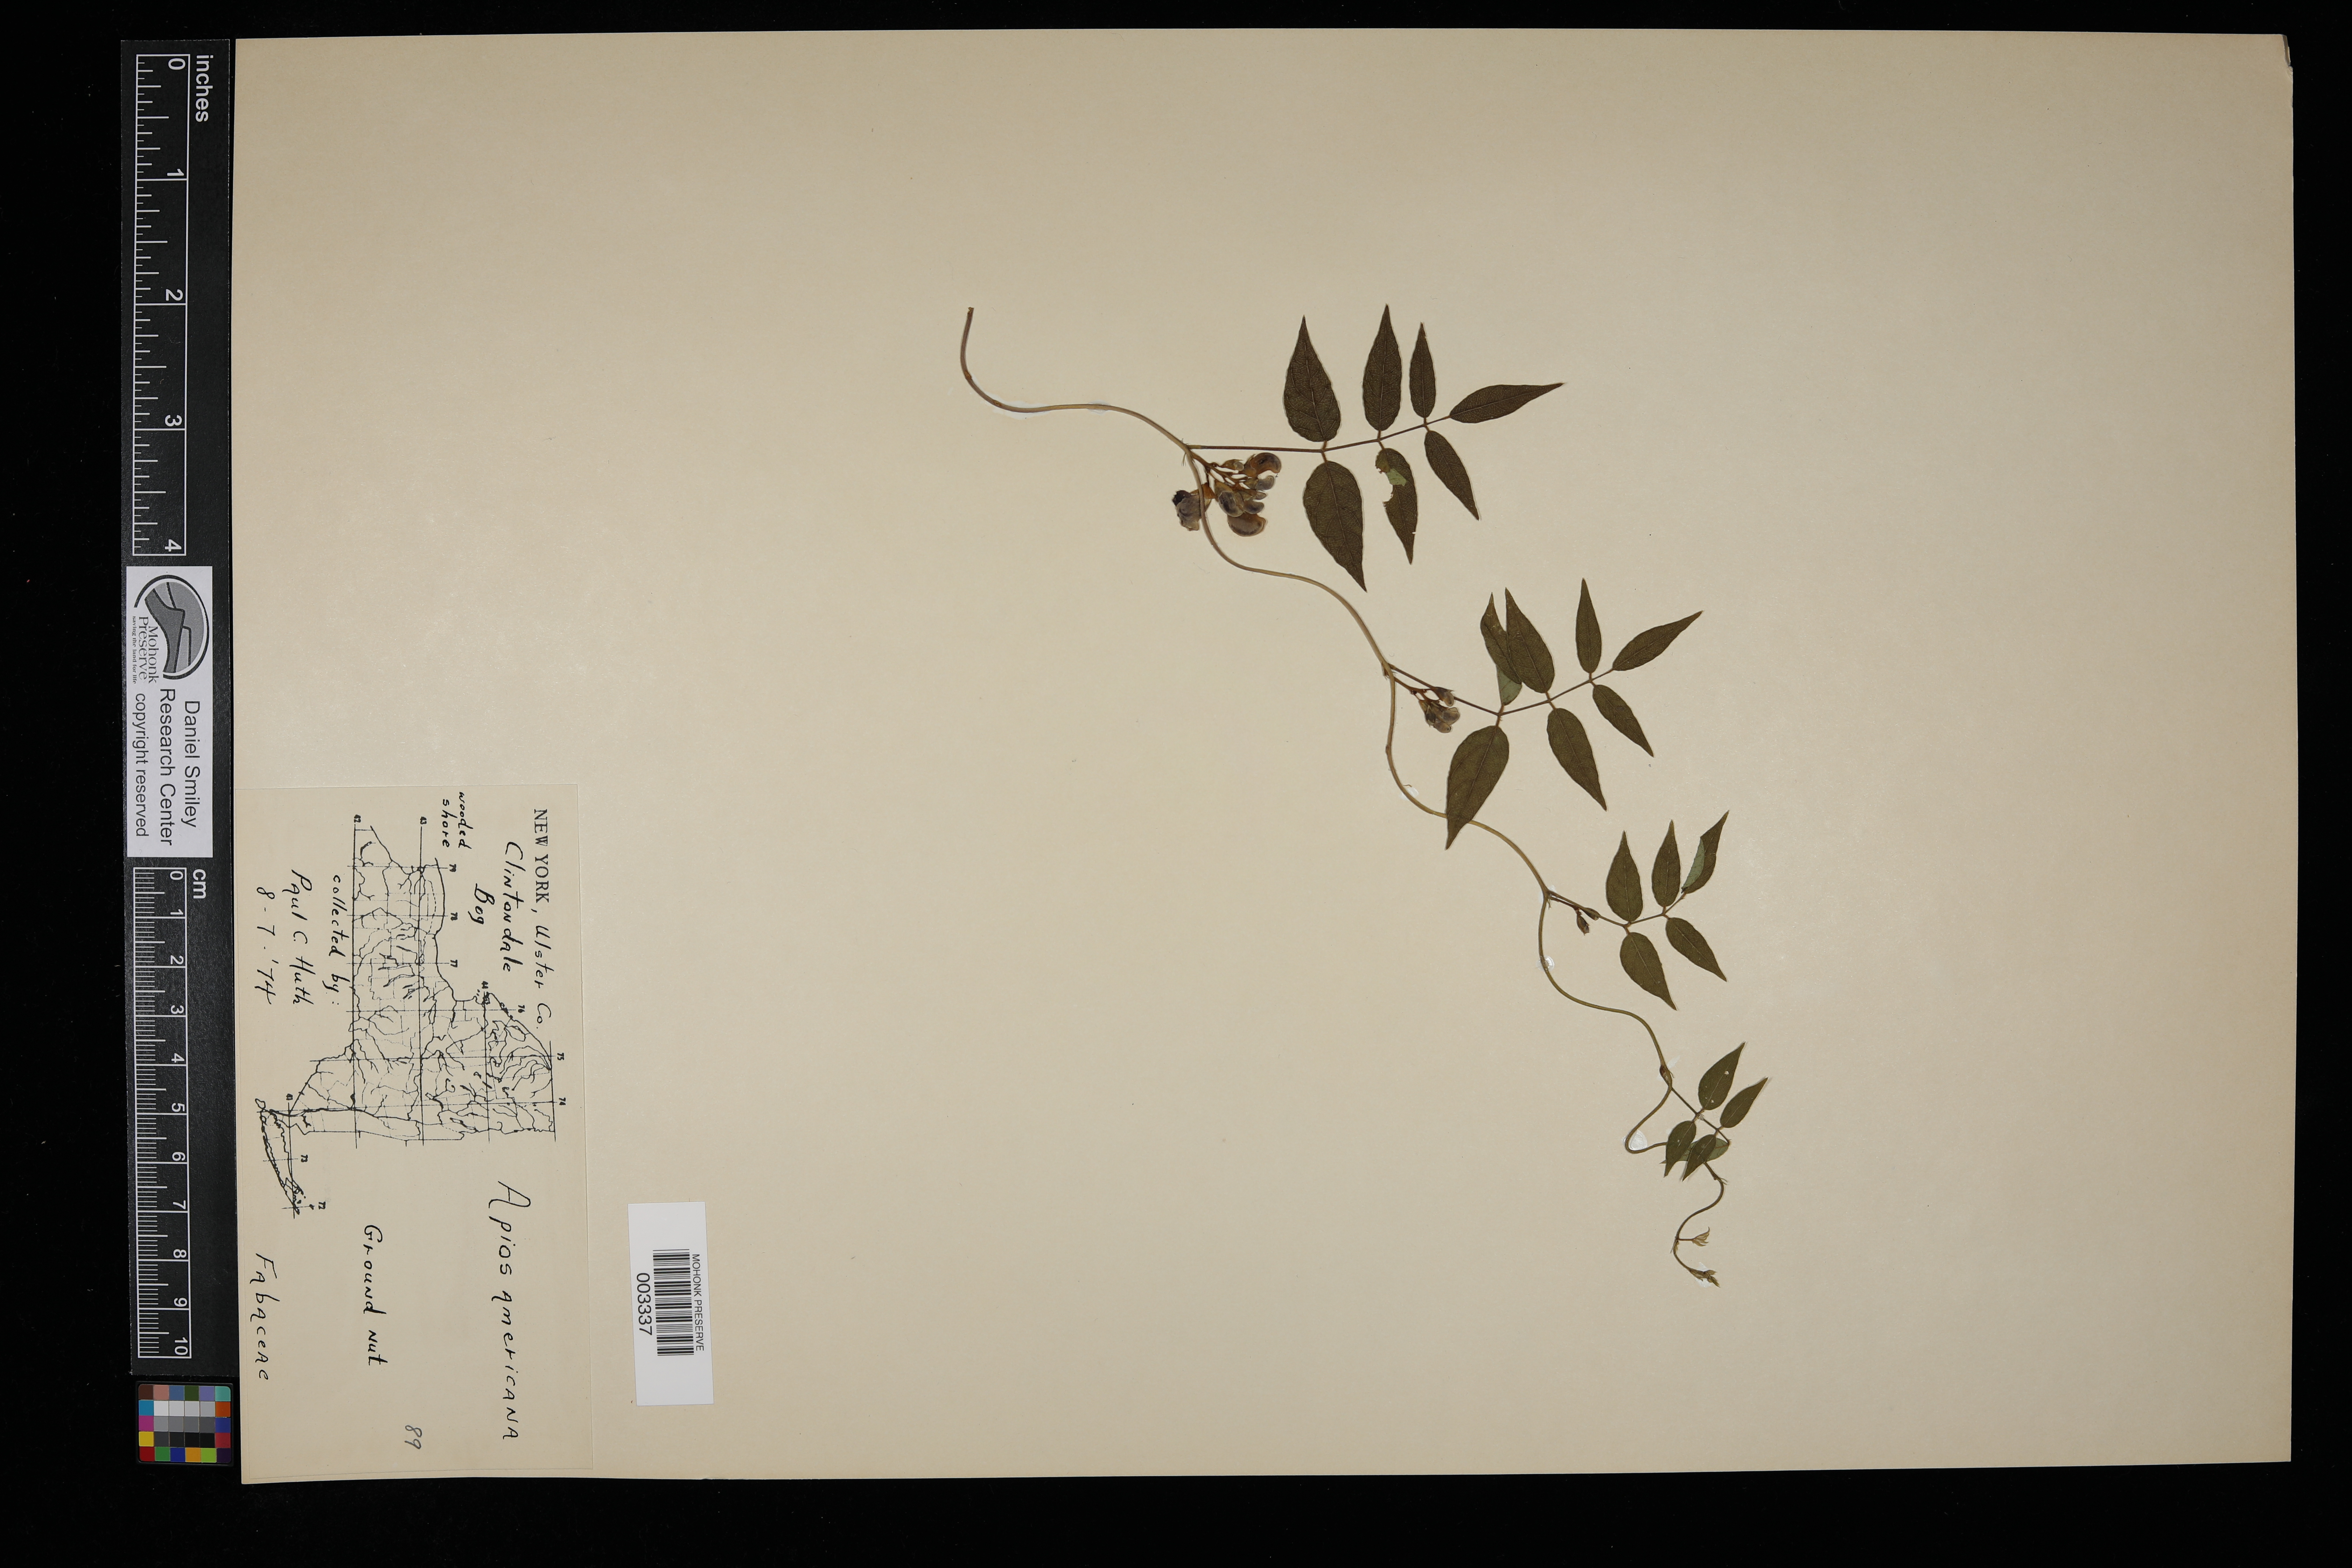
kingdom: Plantae
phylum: Tracheophyta
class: Magnoliopsida
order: Fabales
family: Fabaceae
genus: Apios
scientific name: Apios americana
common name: American potato-bean
